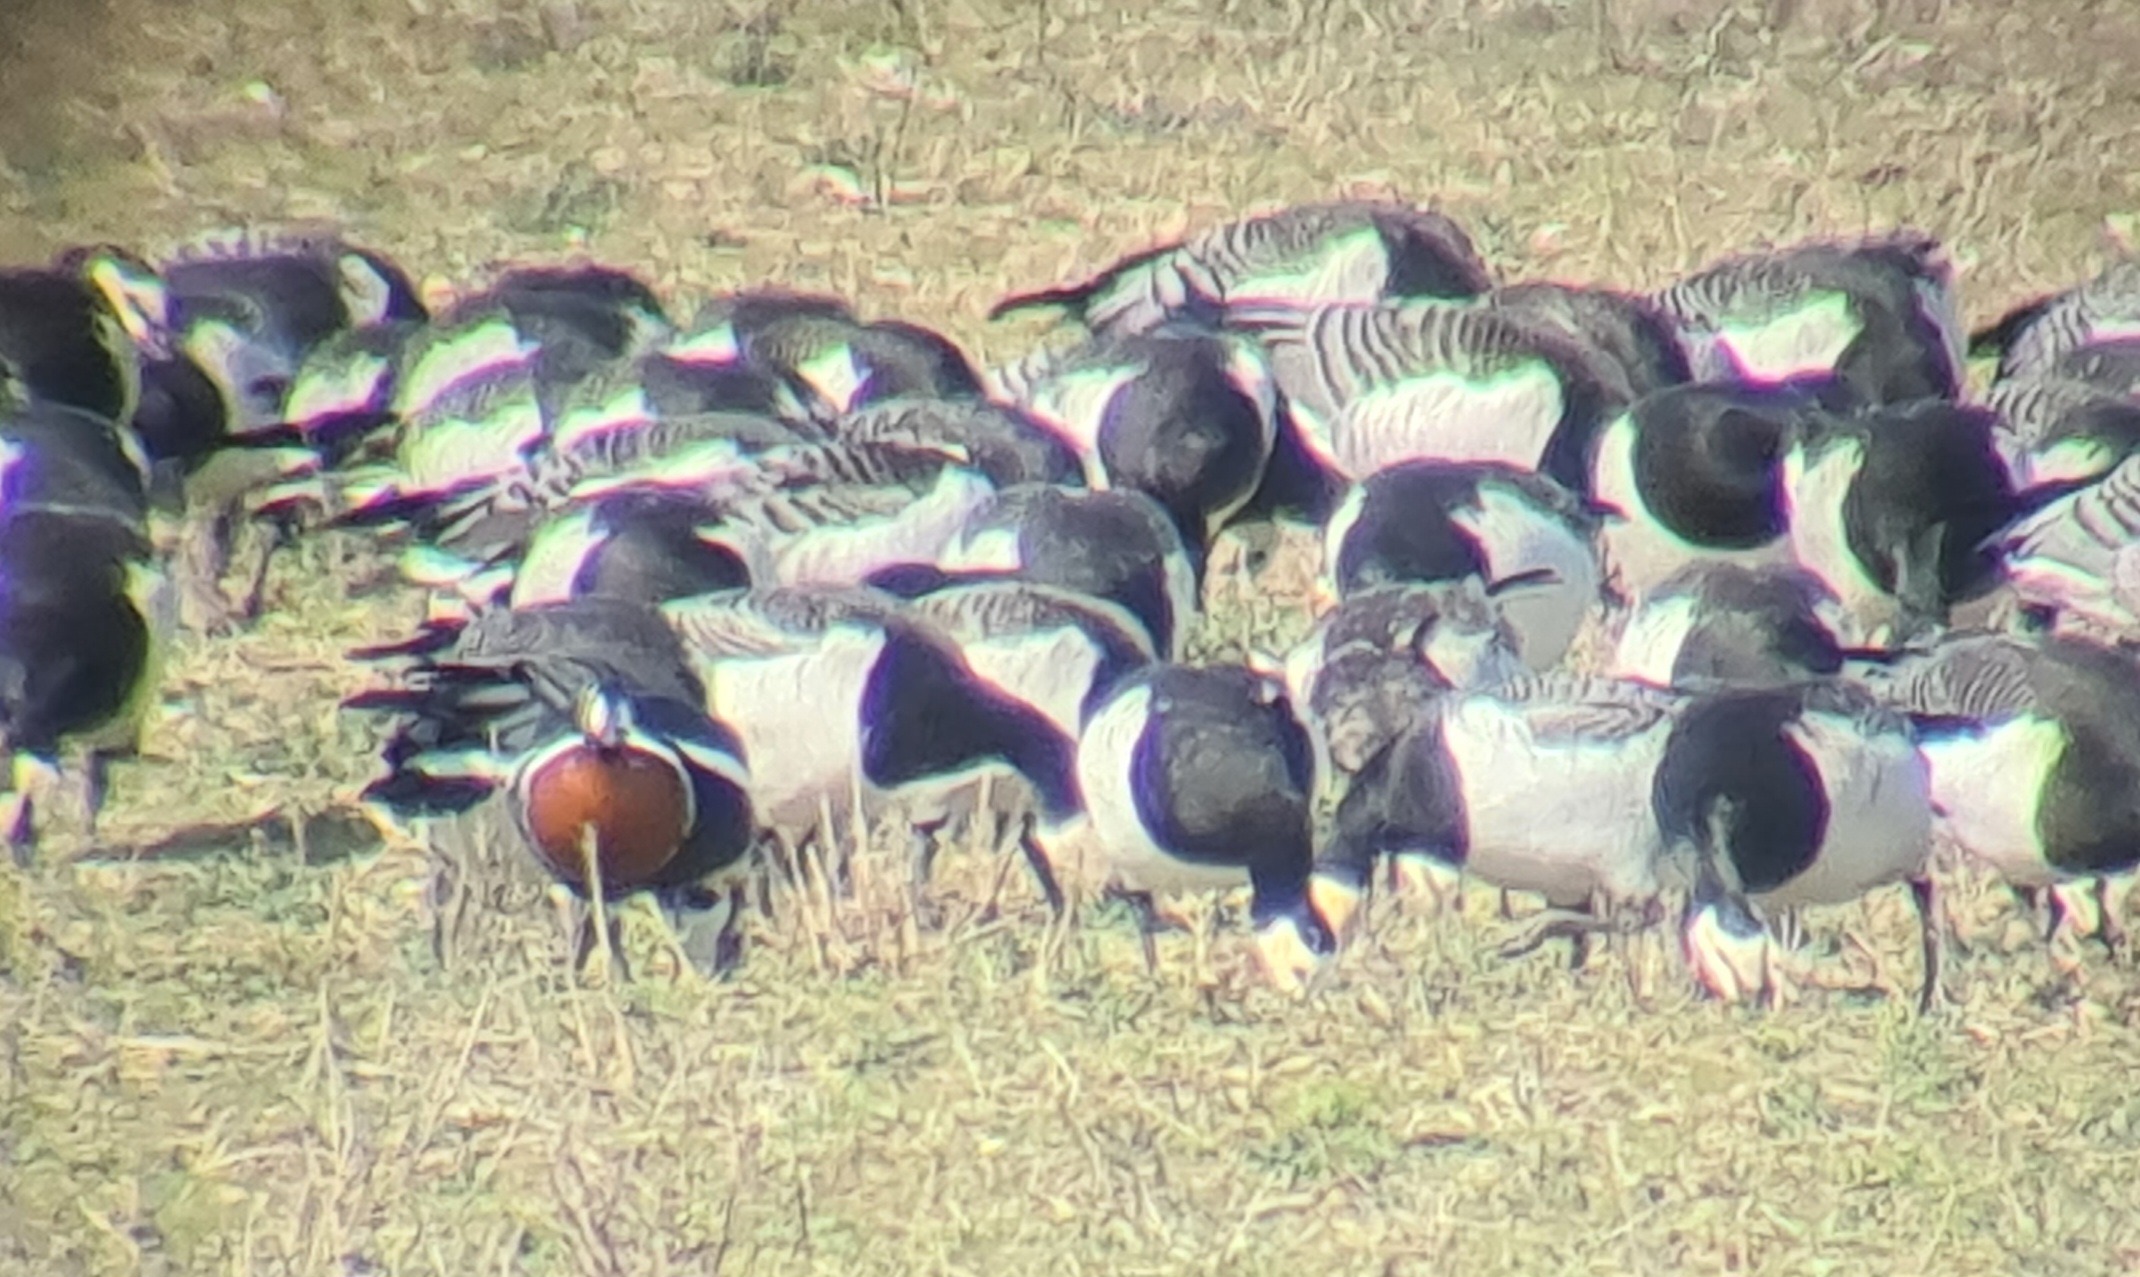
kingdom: Animalia
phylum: Chordata
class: Aves
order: Anseriformes
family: Anatidae
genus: Branta
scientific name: Branta ruficollis
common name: Rødhalset gås
